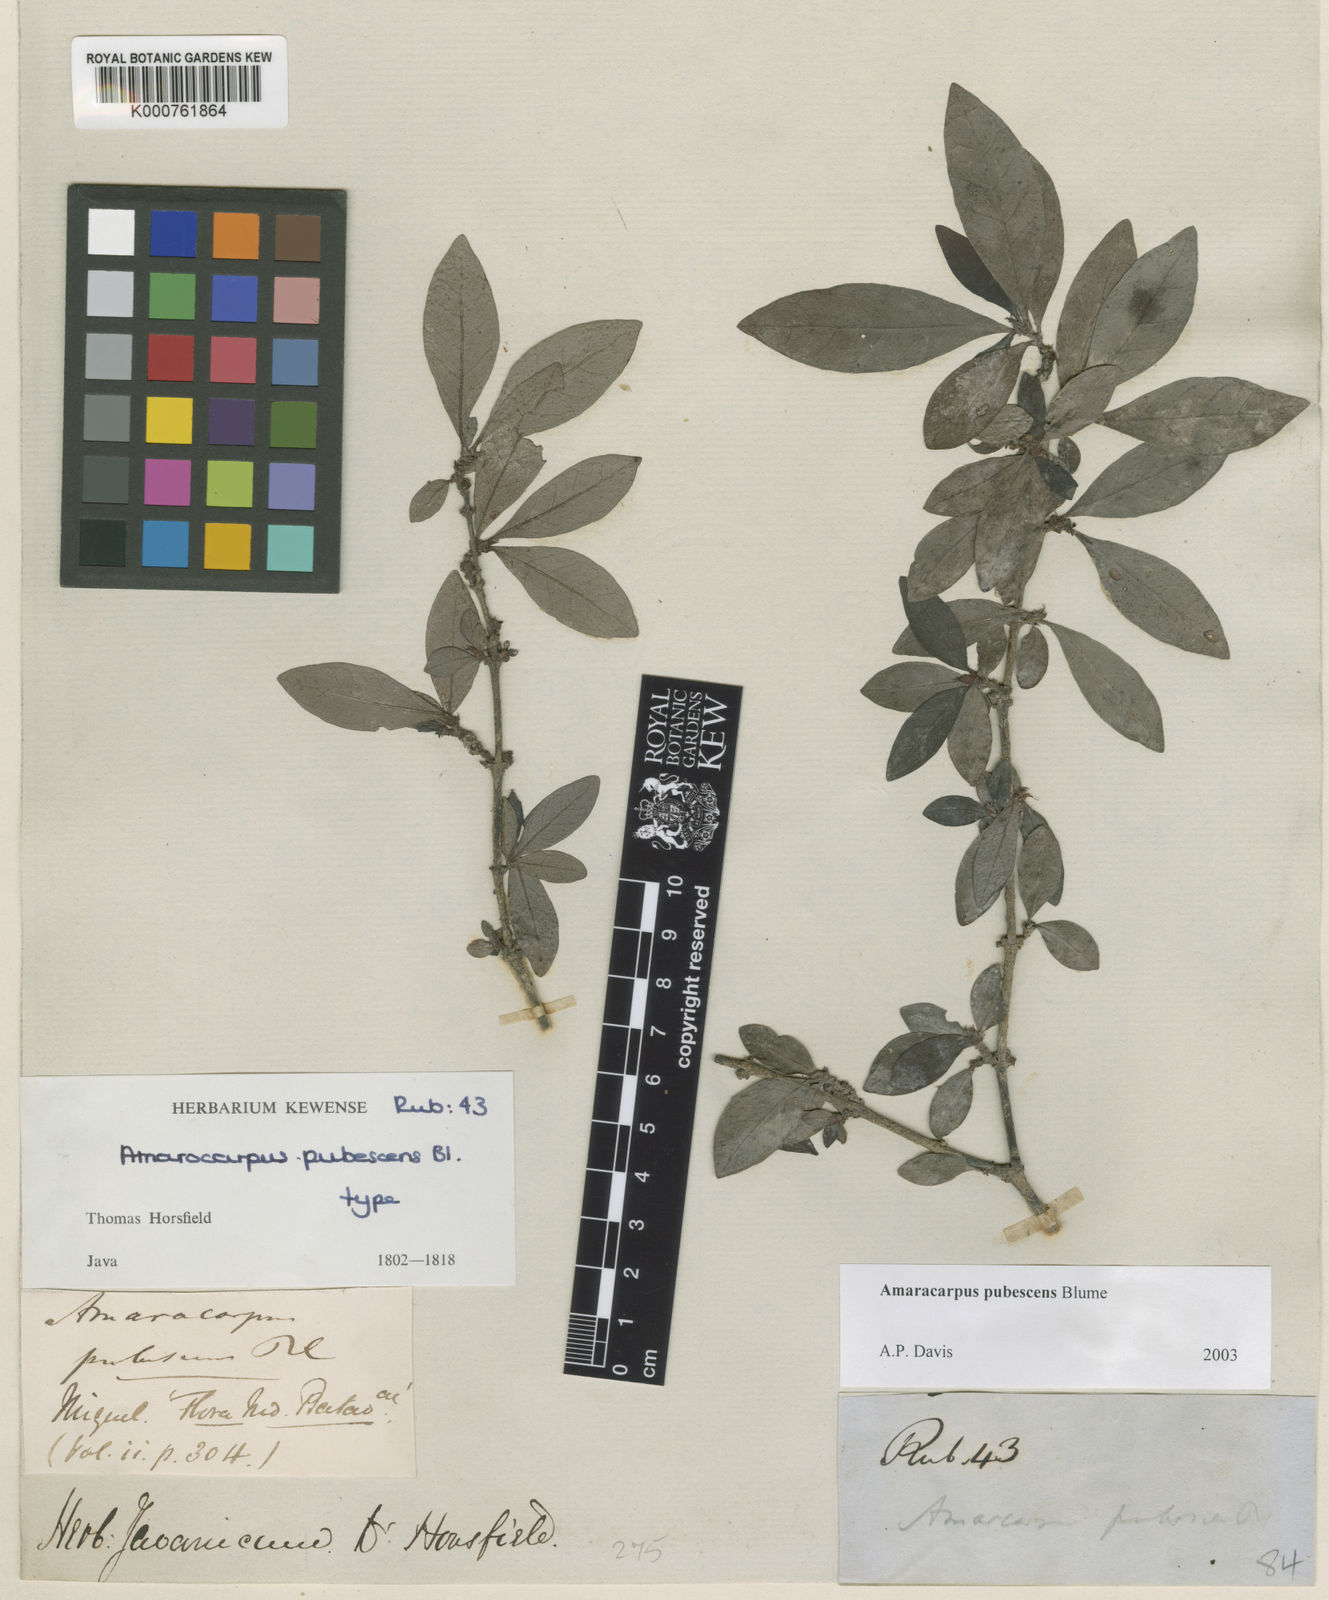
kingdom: Plantae
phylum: Tracheophyta
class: Magnoliopsida
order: Gentianales
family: Rubiaceae
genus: Amaracarpus
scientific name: Amaracarpus pubescens
